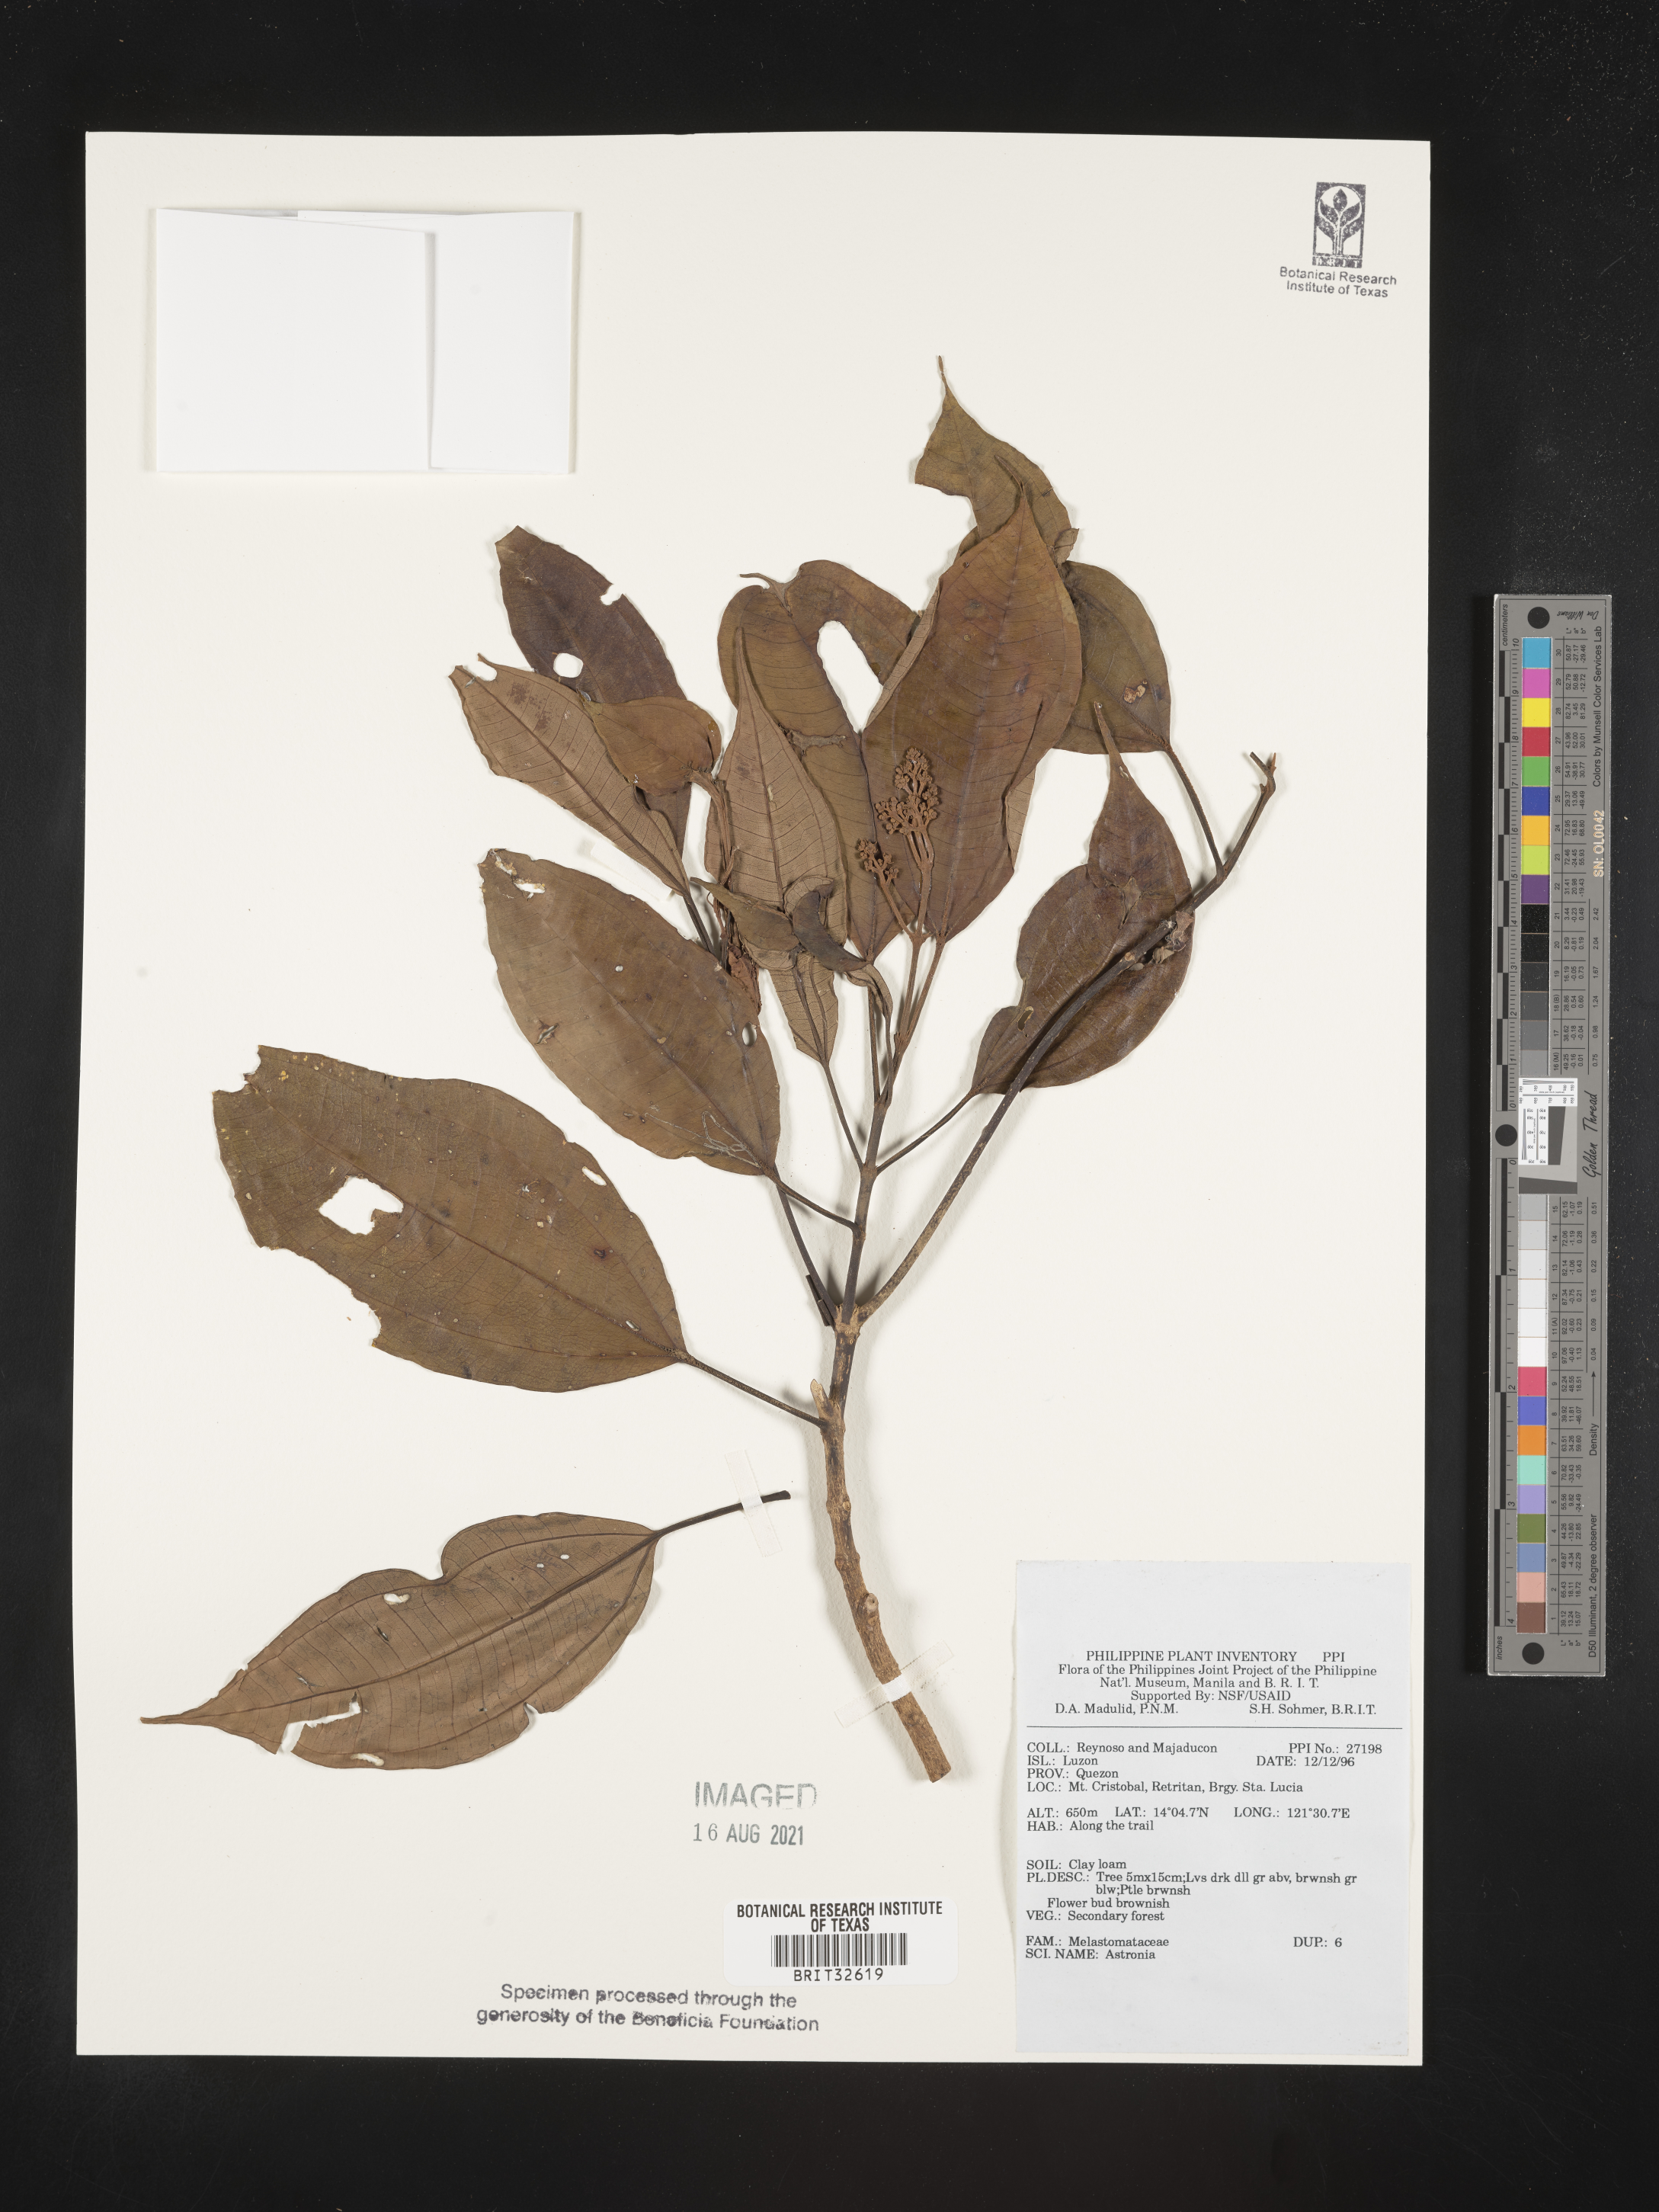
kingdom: Plantae
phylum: Tracheophyta
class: Magnoliopsida
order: Myrtales
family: Melastomataceae
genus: Astronia
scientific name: Astronia
